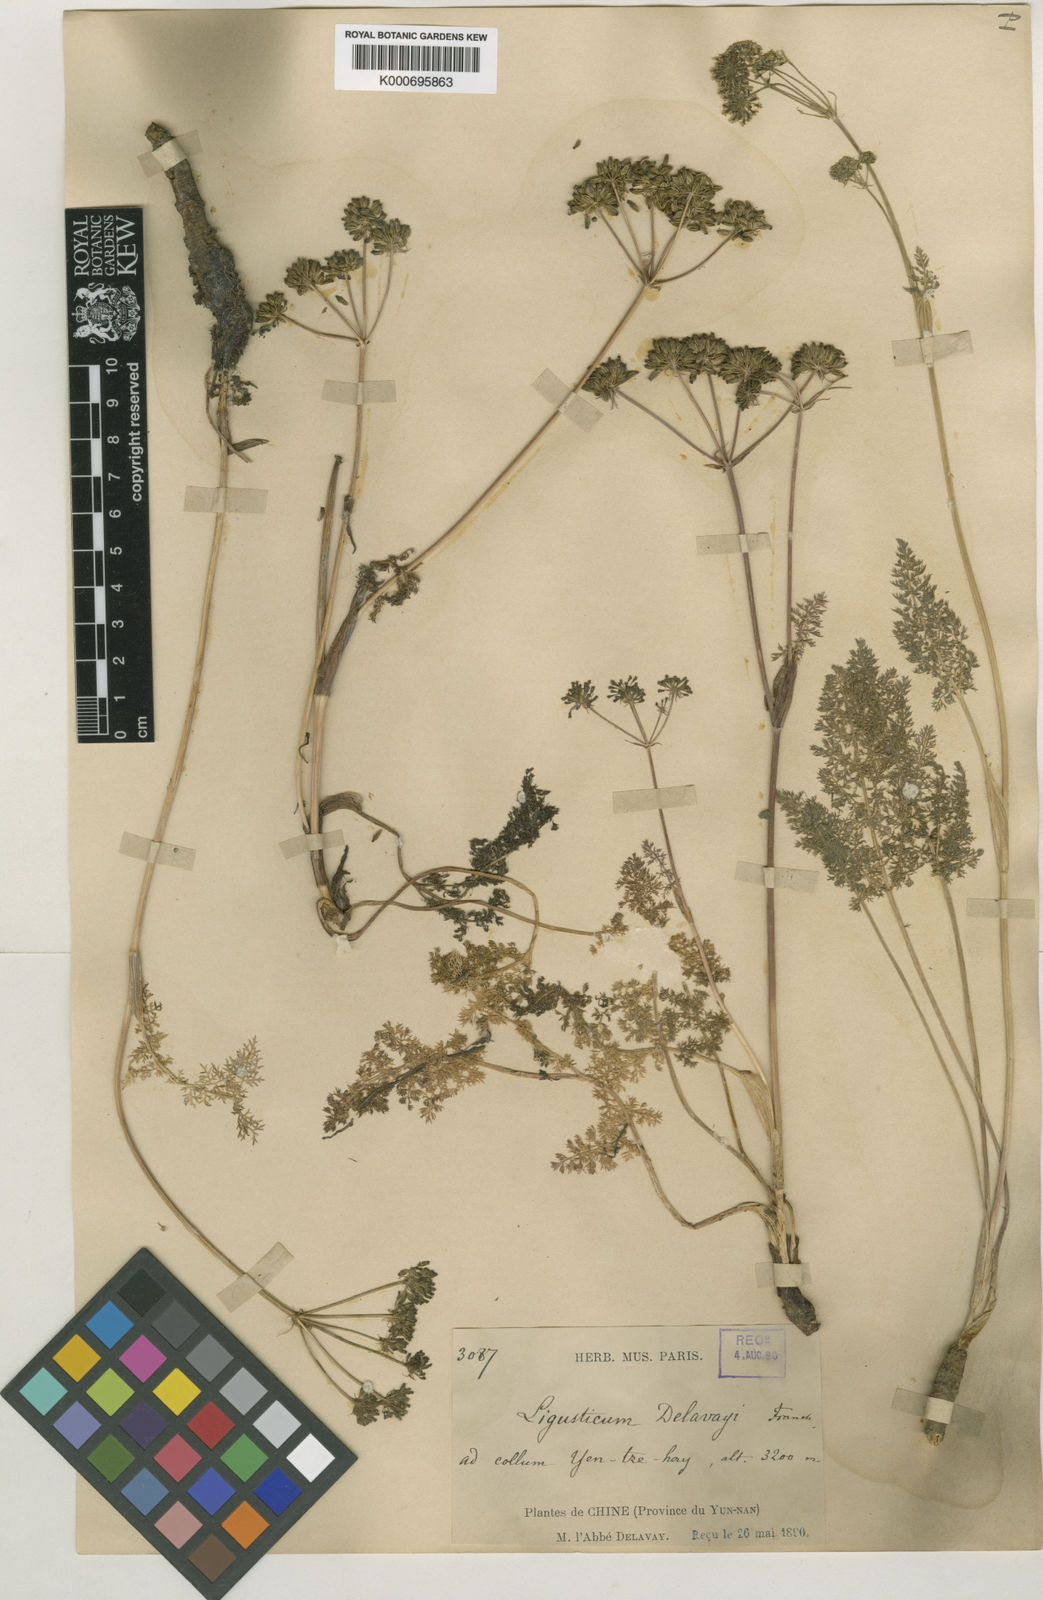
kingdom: Plantae
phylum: Tracheophyta
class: Magnoliopsida
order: Apiales
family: Apiaceae
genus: Ligusticum
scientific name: Ligusticum delavayi
